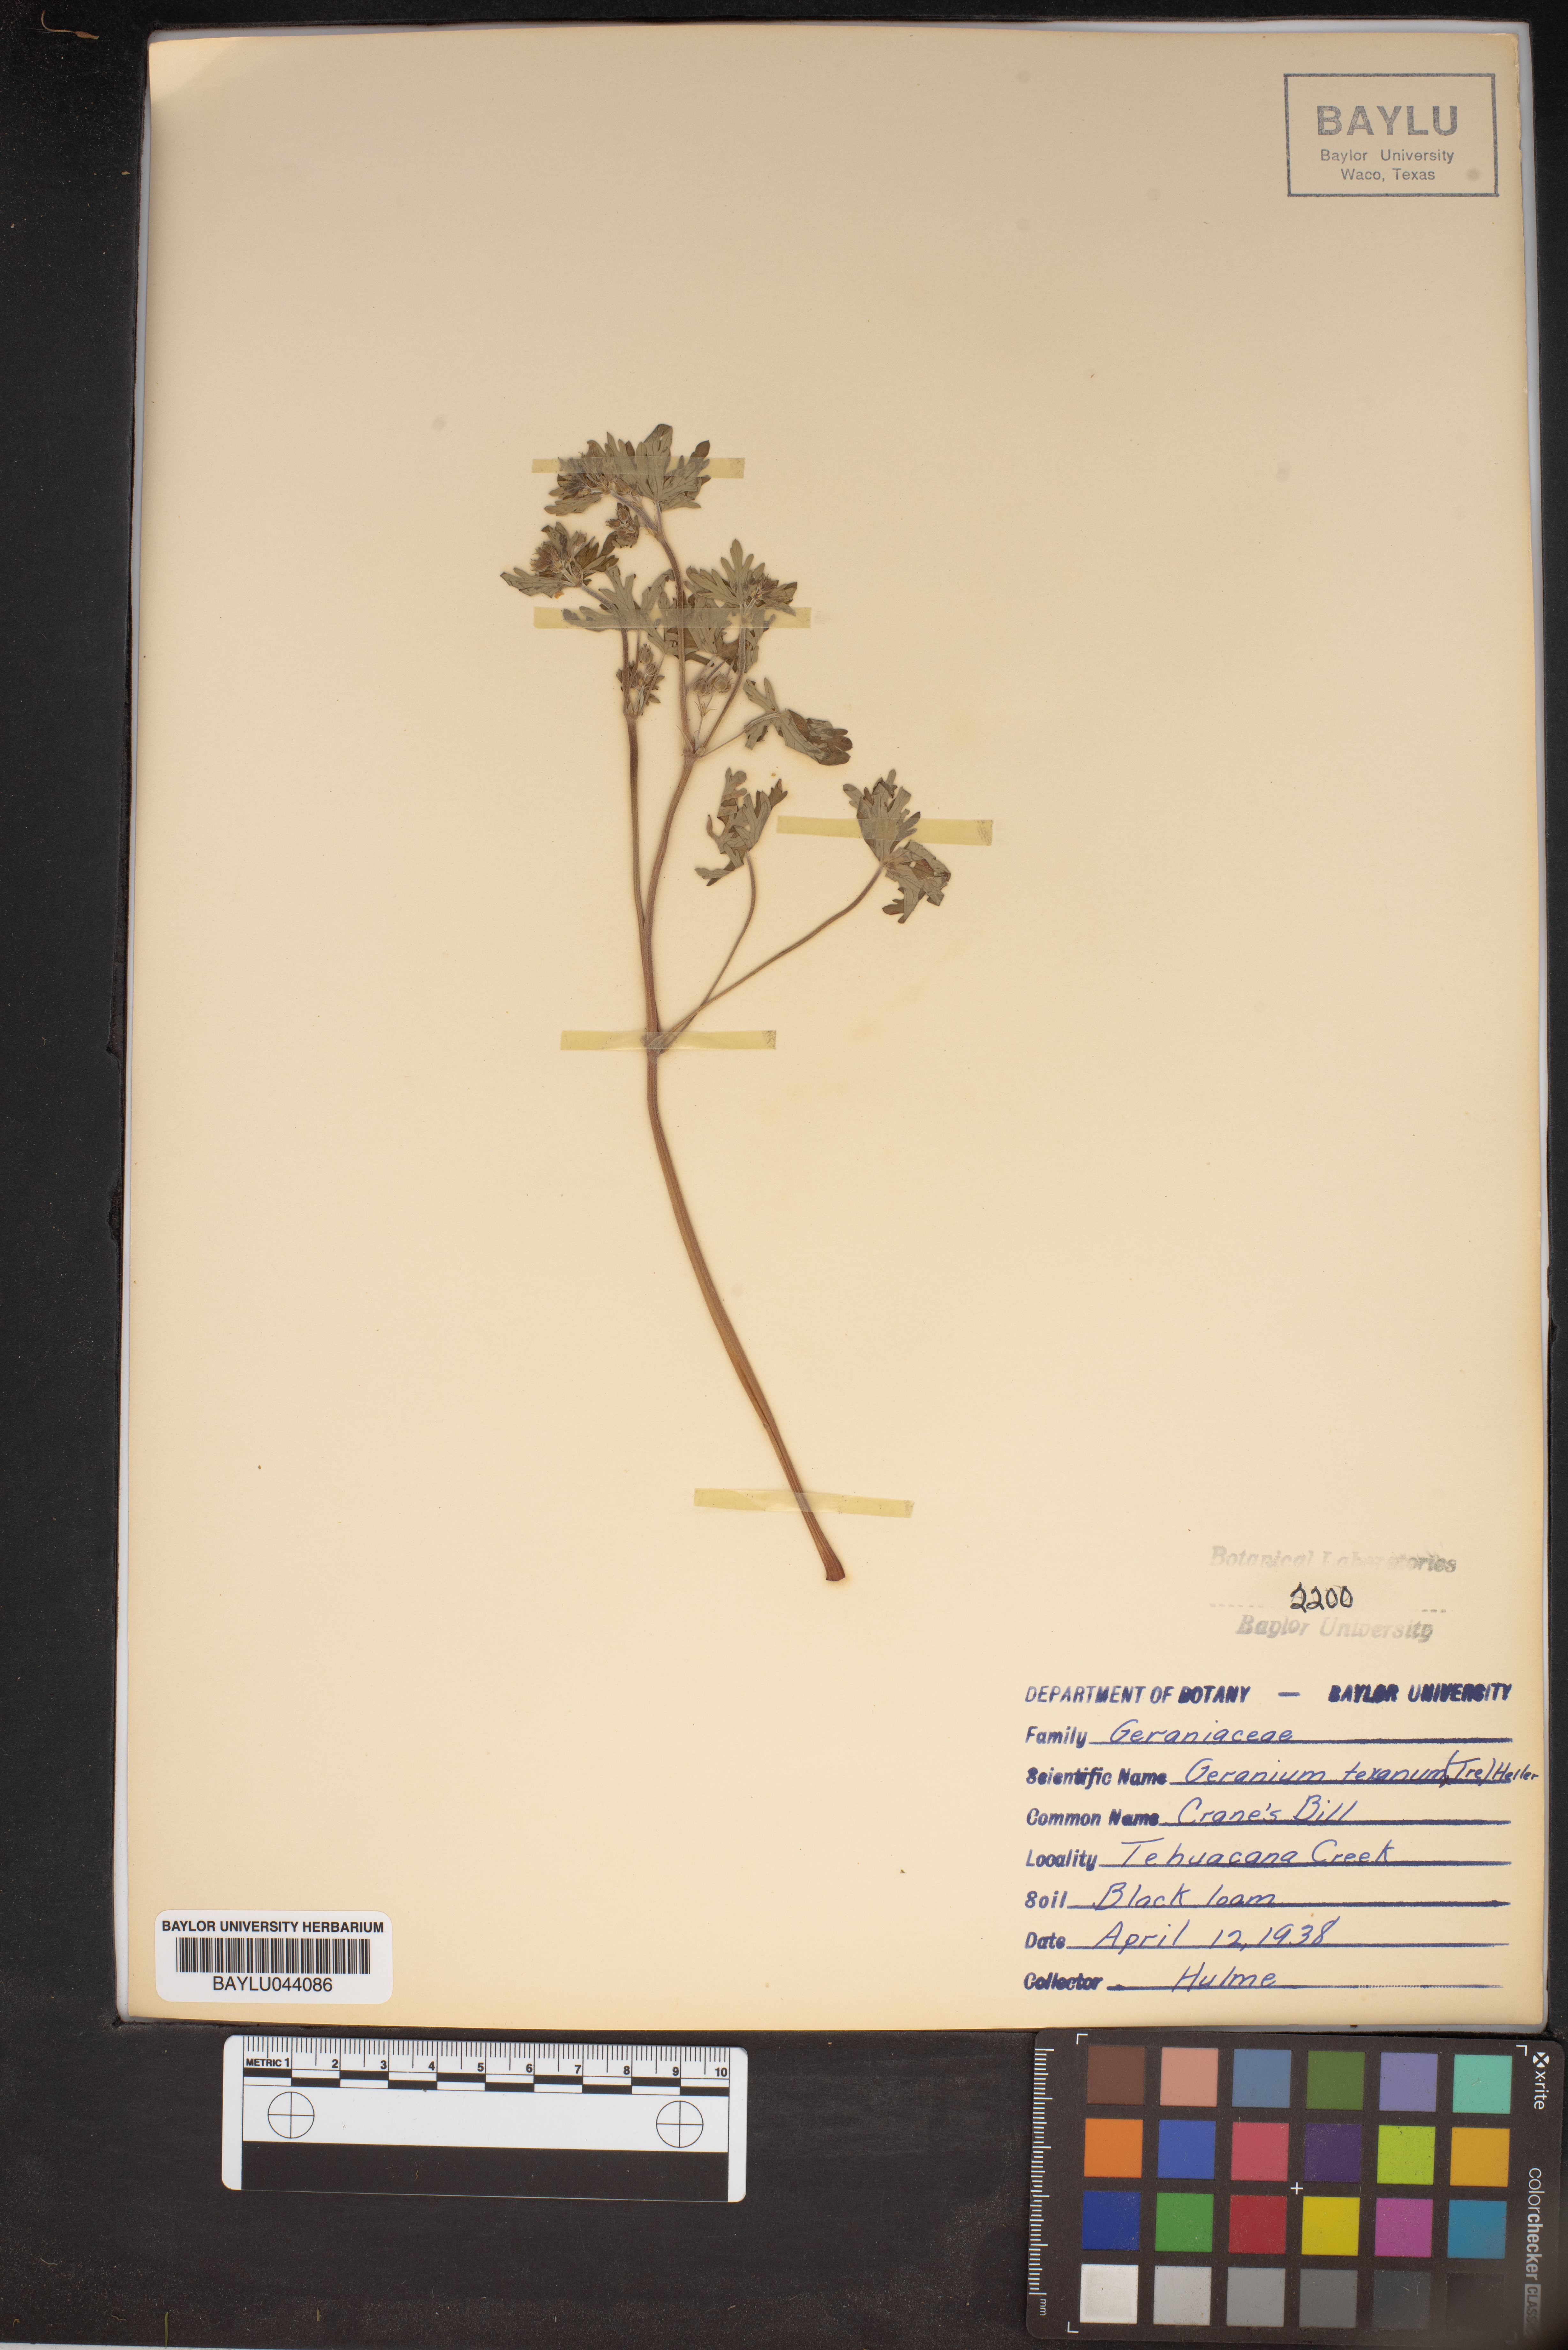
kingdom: Plantae
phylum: Tracheophyta
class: Magnoliopsida
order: Geraniales
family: Geraniaceae
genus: Geranium
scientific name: Geranium texanum
